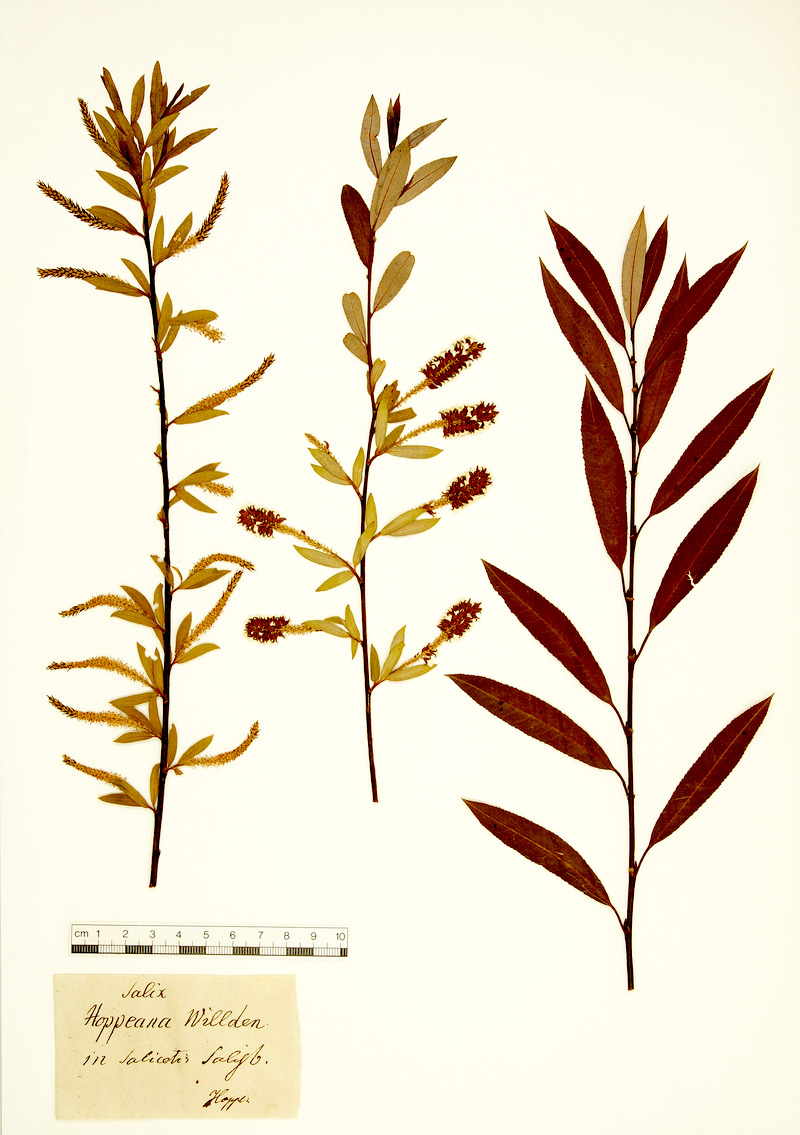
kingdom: Plantae
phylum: Tracheophyta
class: Magnoliopsida
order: Malpighiales
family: Salicaceae
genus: Salix
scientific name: Salix triandra
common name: Almond willow
